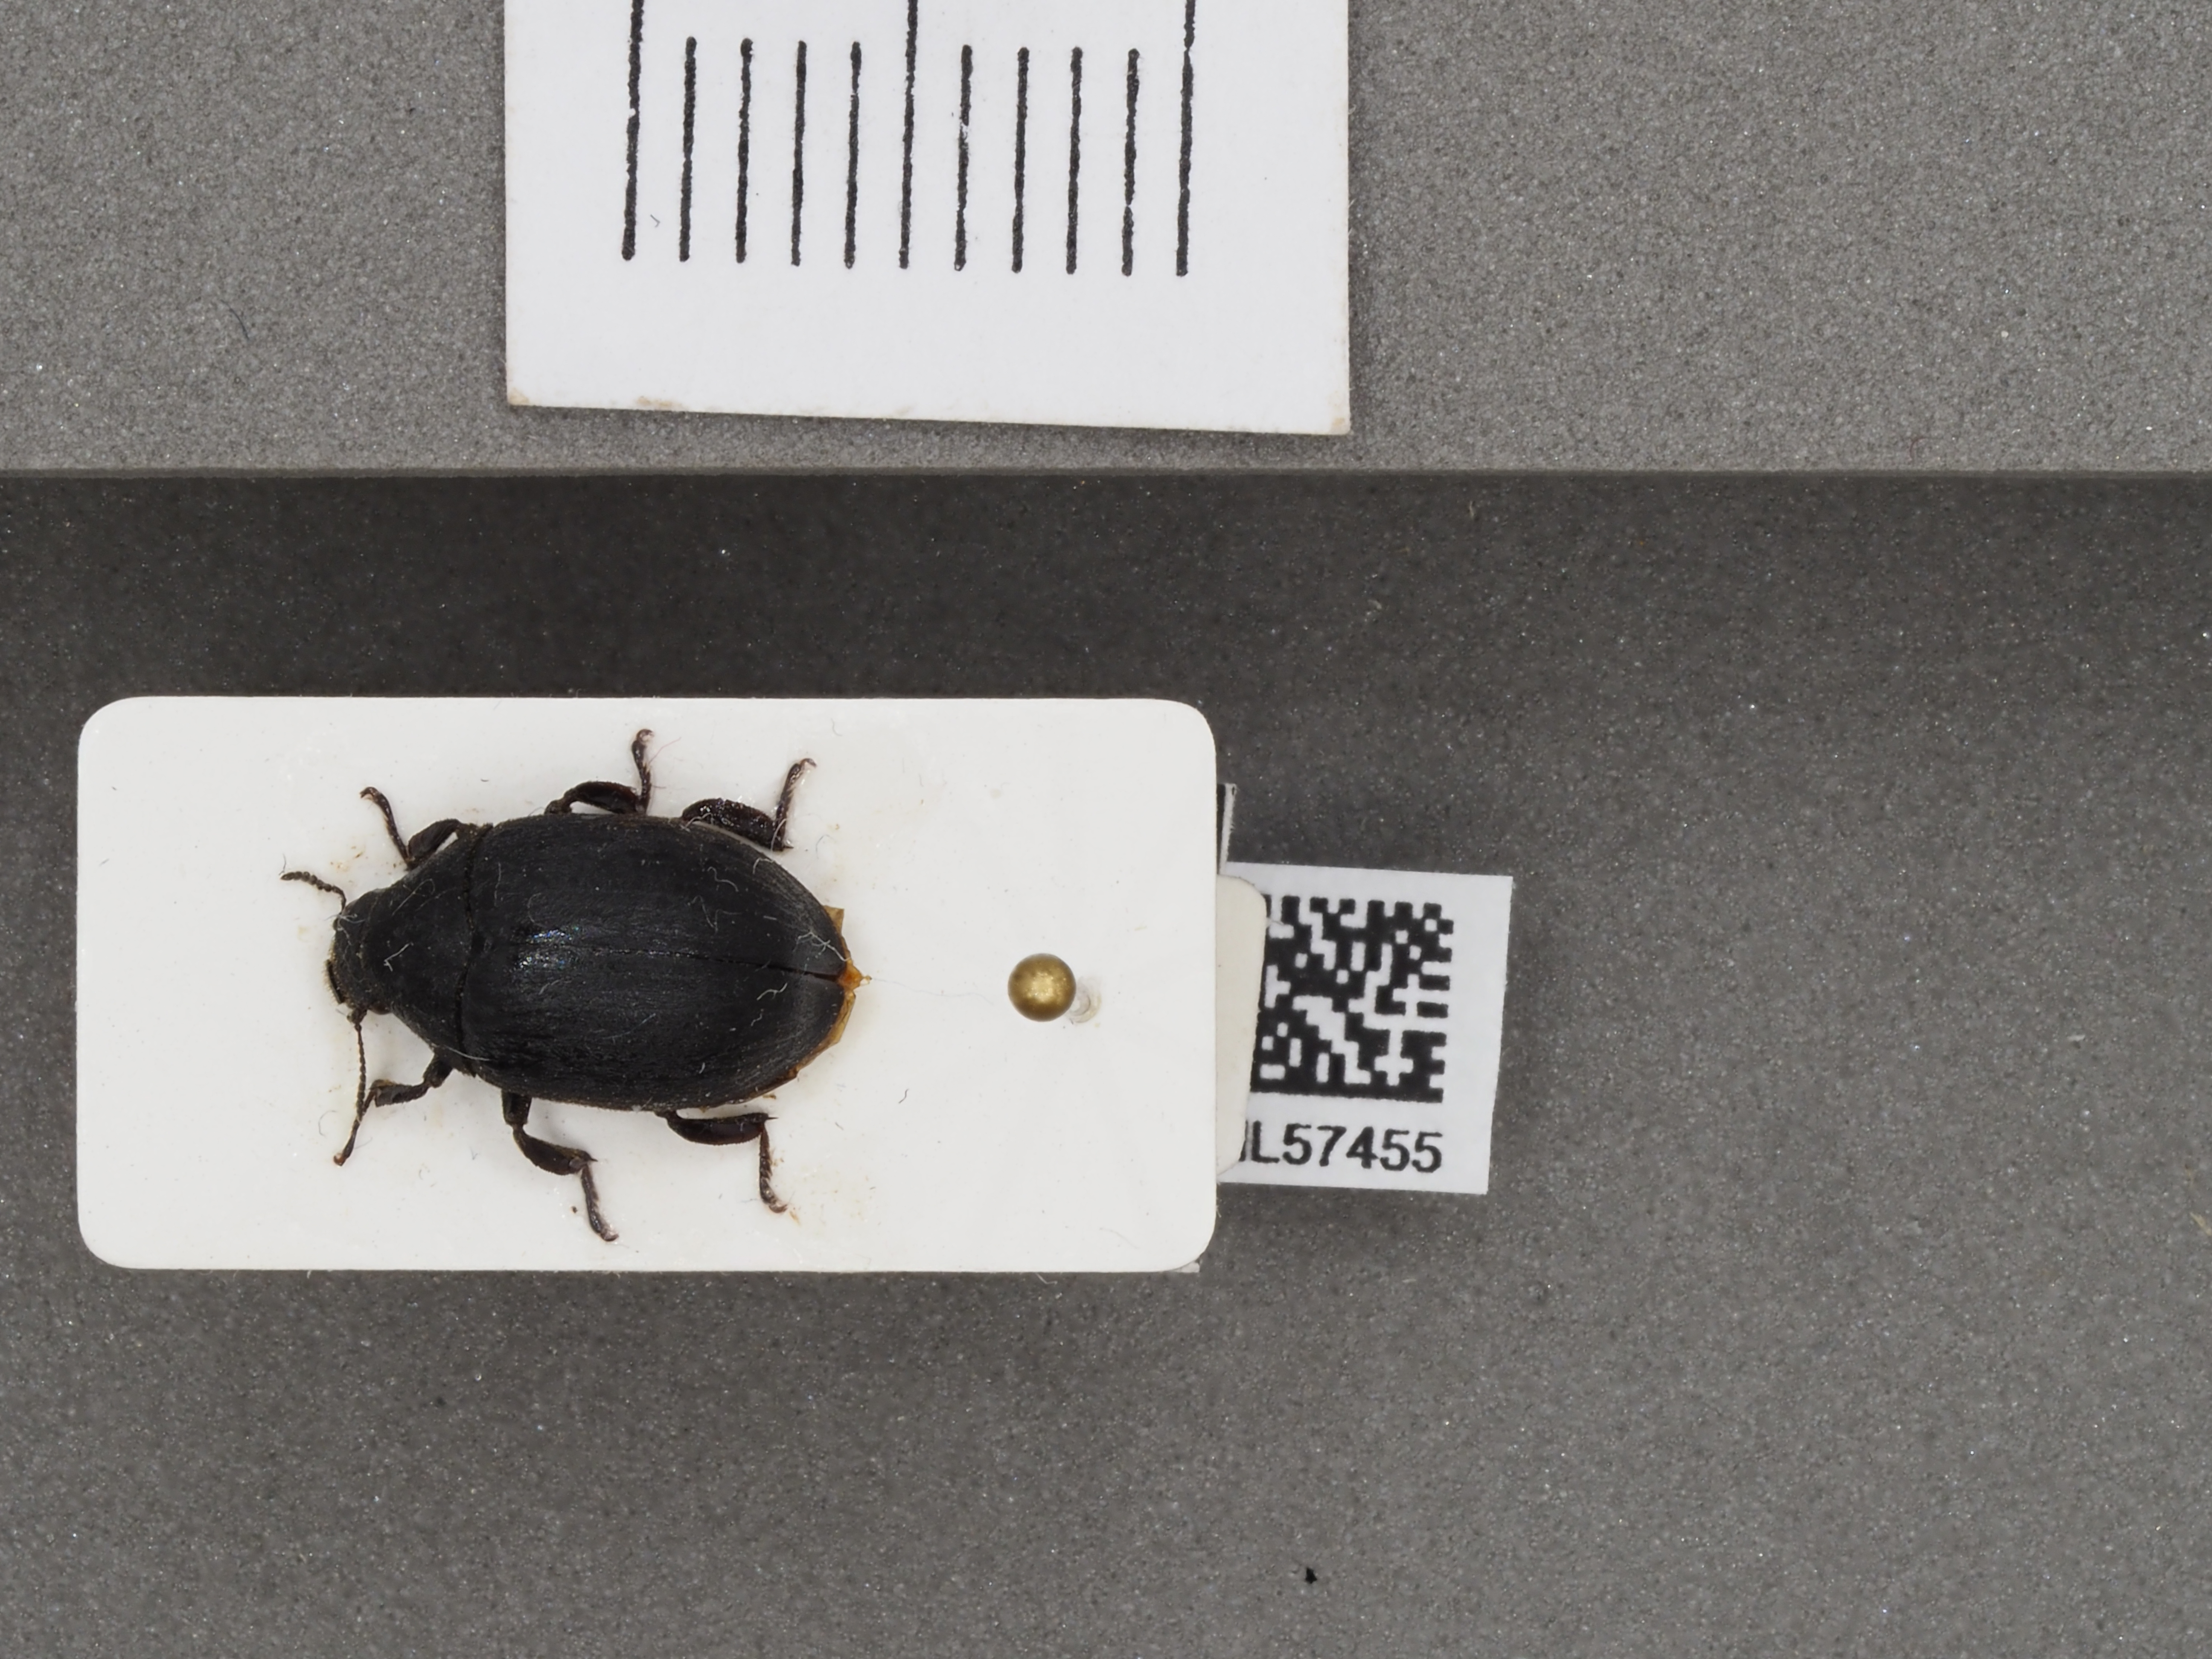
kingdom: Animalia
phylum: Arthropoda
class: Insecta
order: Coleoptera
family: Byrrhidae
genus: Byrrhus
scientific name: Byrrhus pilula
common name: Pill beetle
